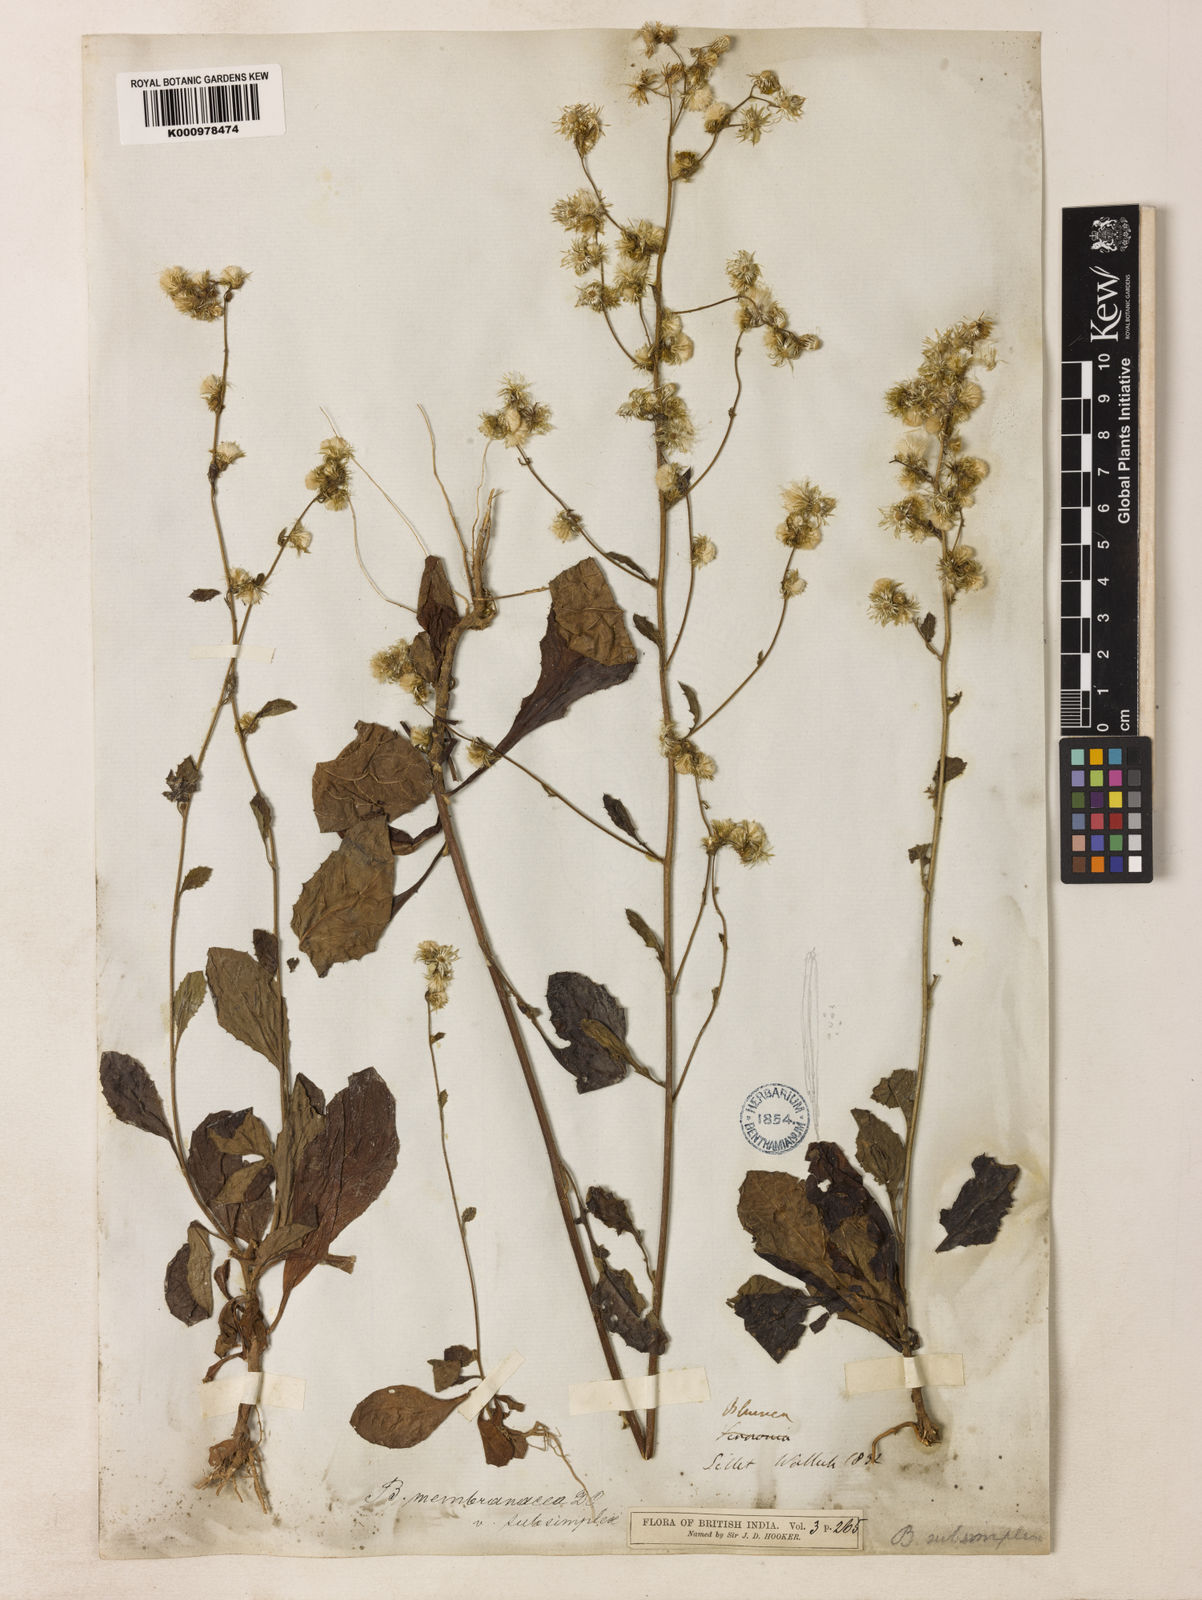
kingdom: Plantae
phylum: Tracheophyta
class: Magnoliopsida
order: Asterales
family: Asteraceae
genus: Blumea
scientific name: Blumea
